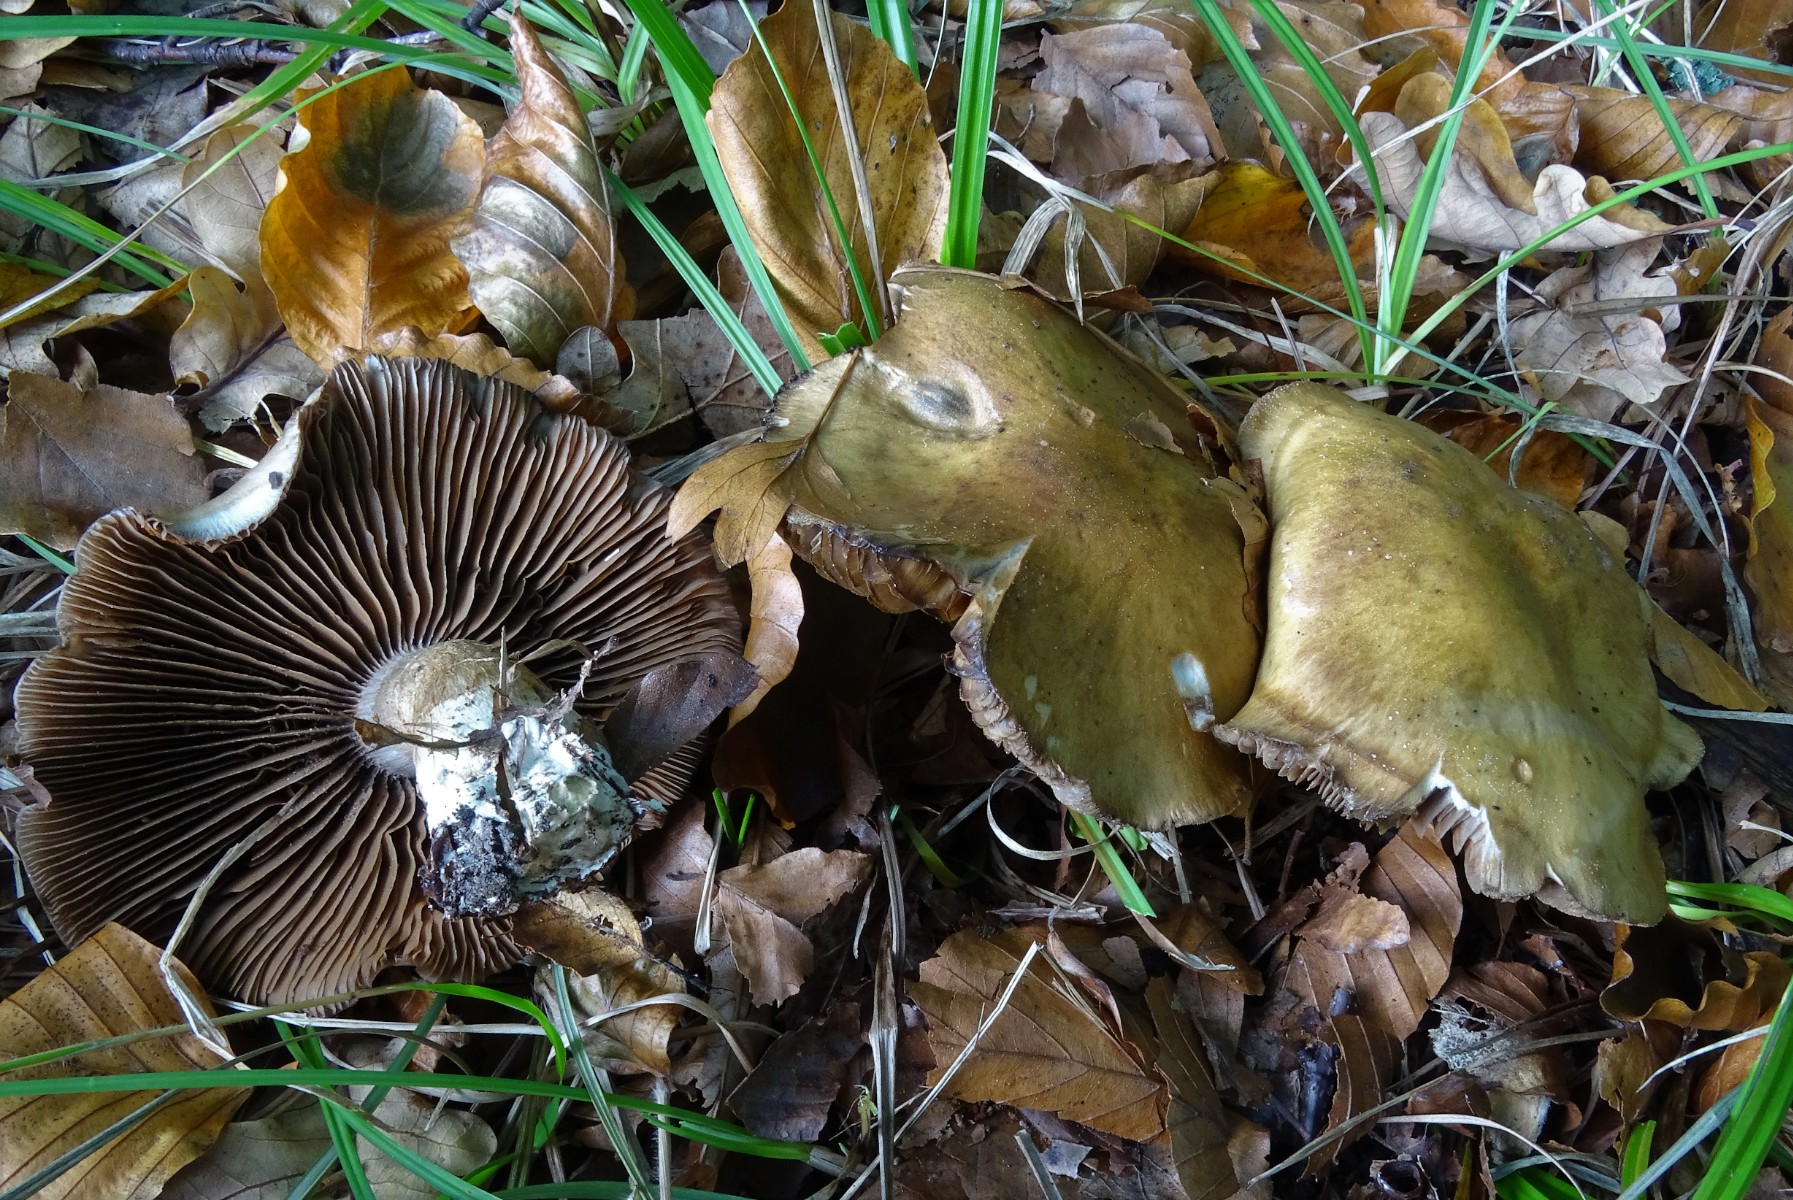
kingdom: Fungi
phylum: Basidiomycota
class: Agaricomycetes
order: Agaricales
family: Cortinariaceae
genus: Cortinarius
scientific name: Cortinarius
